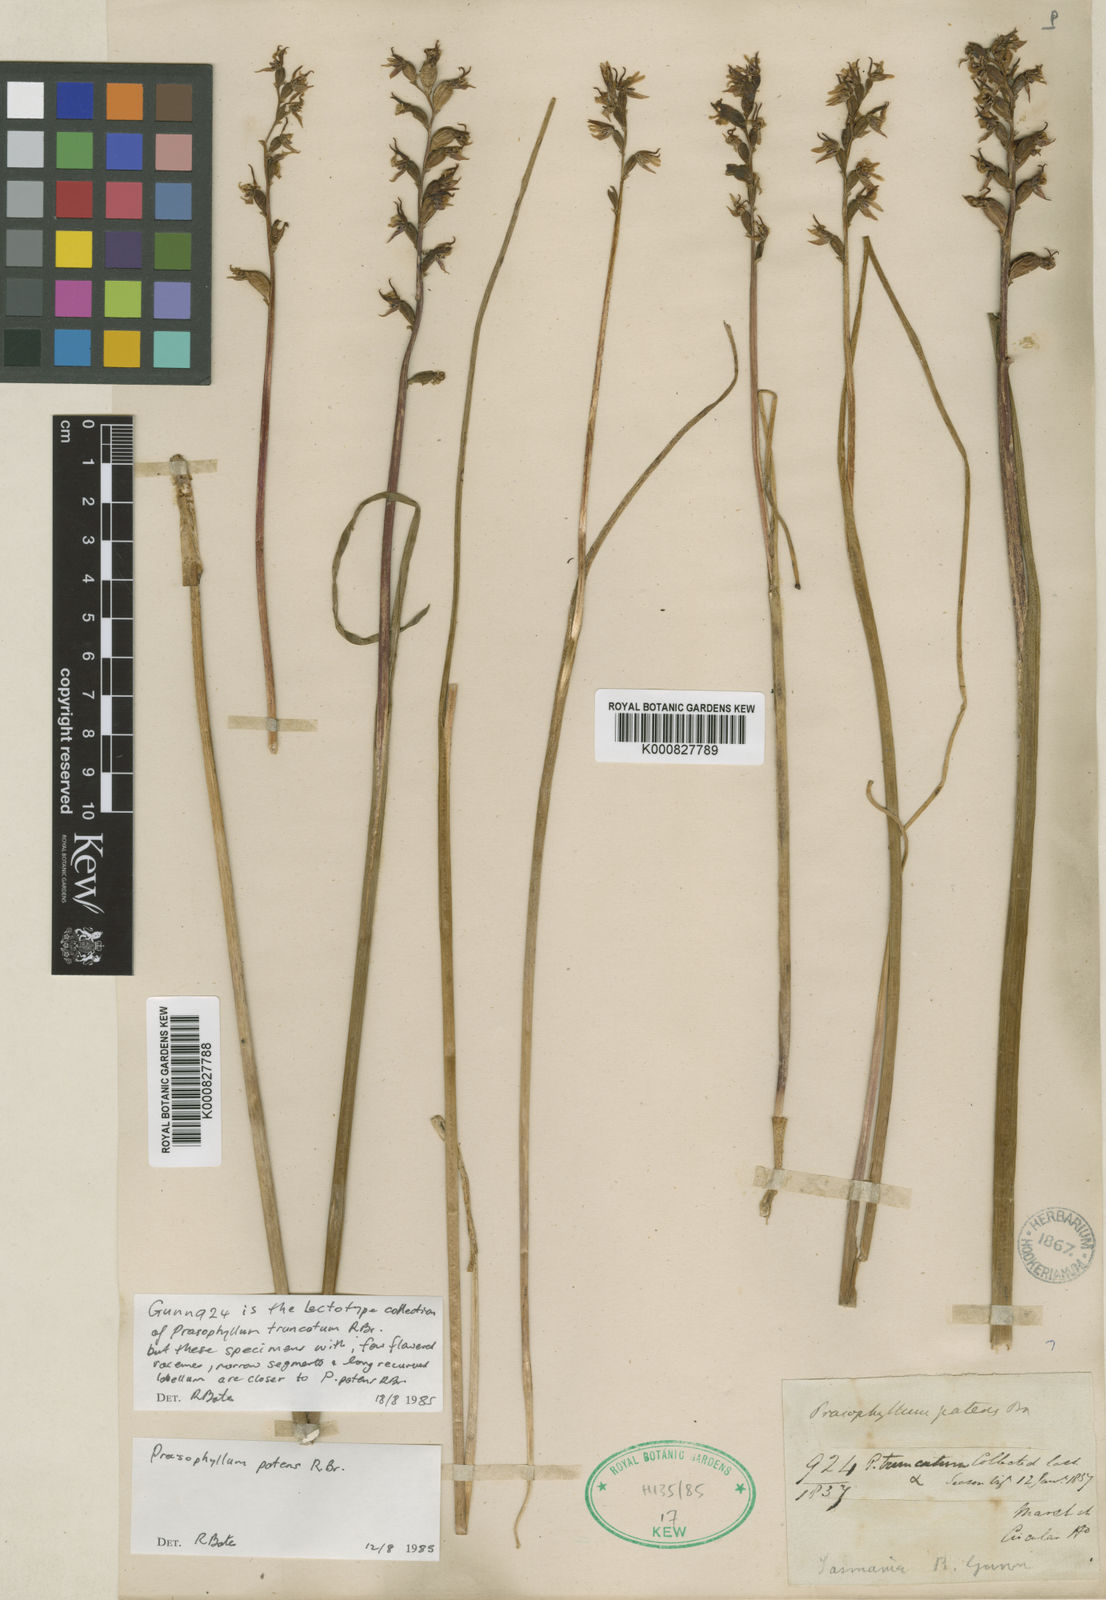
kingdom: Plantae
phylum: Tracheophyta
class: Liliopsida
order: Asparagales
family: Orchidaceae
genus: Prasophyllum
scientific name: Prasophyllum truncatum
